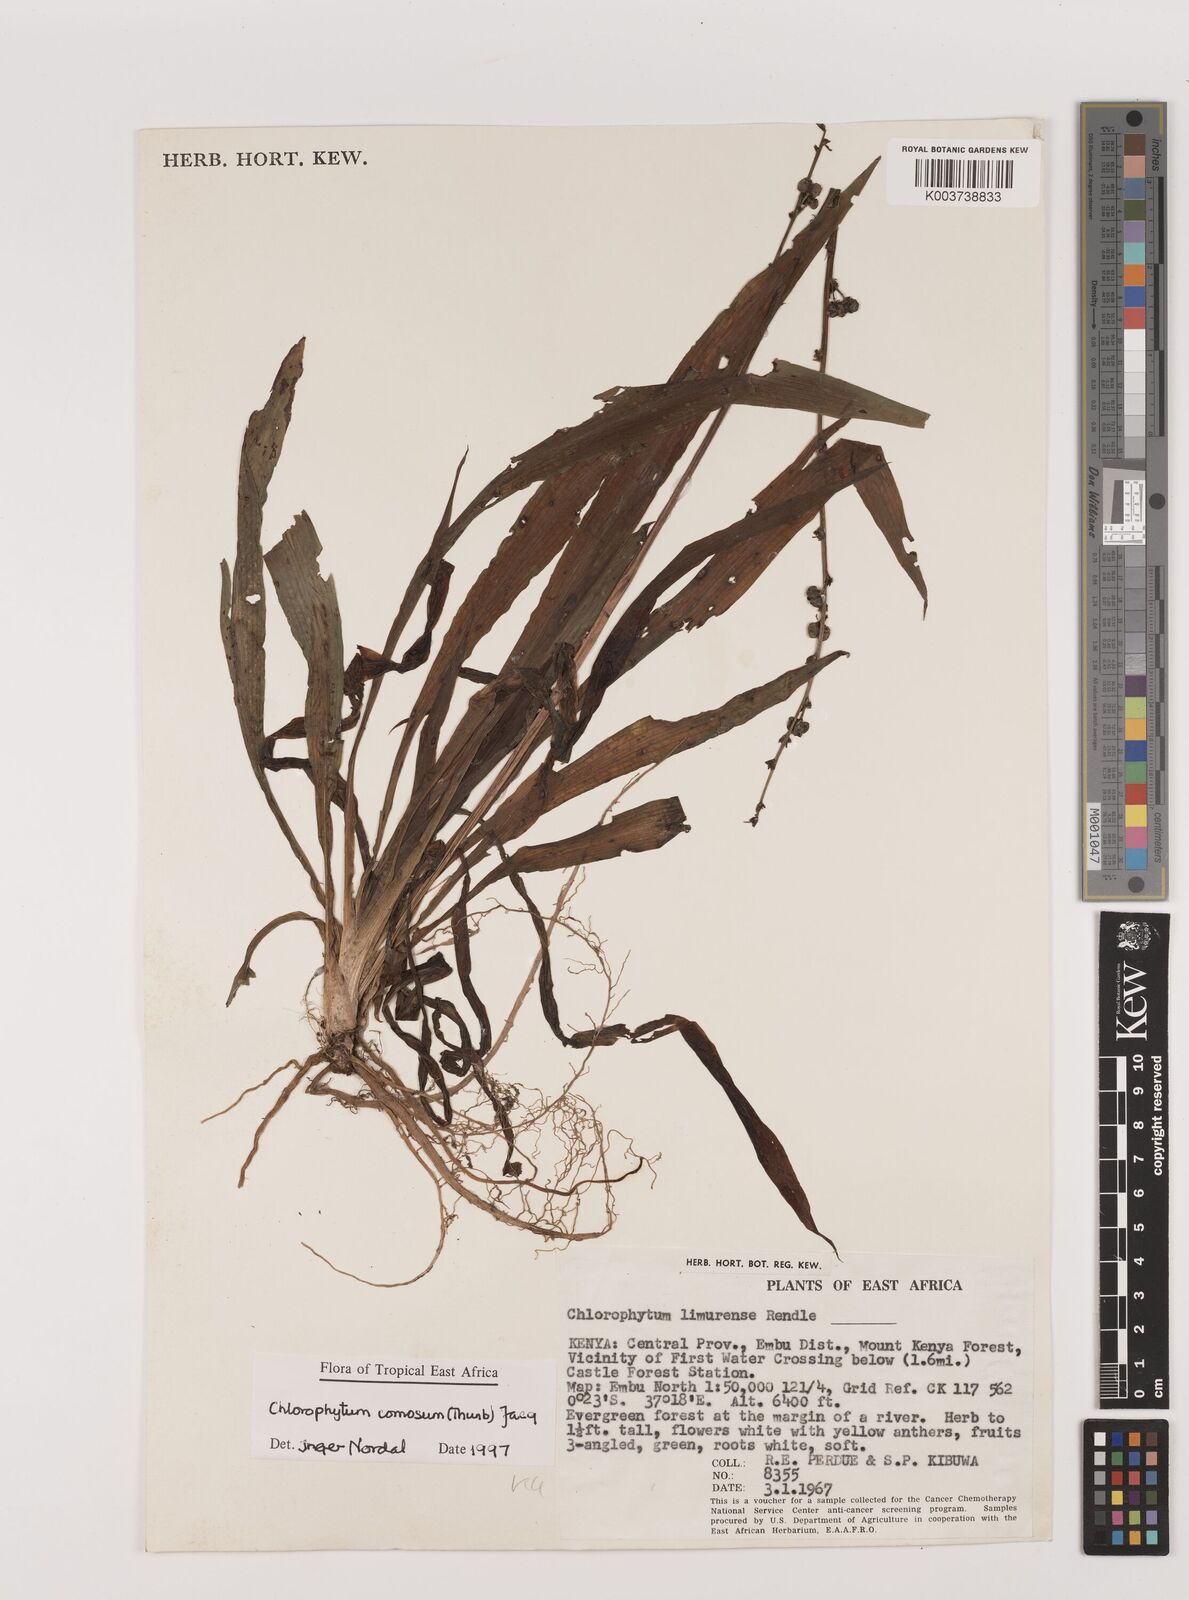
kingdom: Plantae
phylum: Tracheophyta
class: Liliopsida
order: Asparagales
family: Asparagaceae
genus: Chlorophytum
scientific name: Chlorophytum comosum
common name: Spider plant
